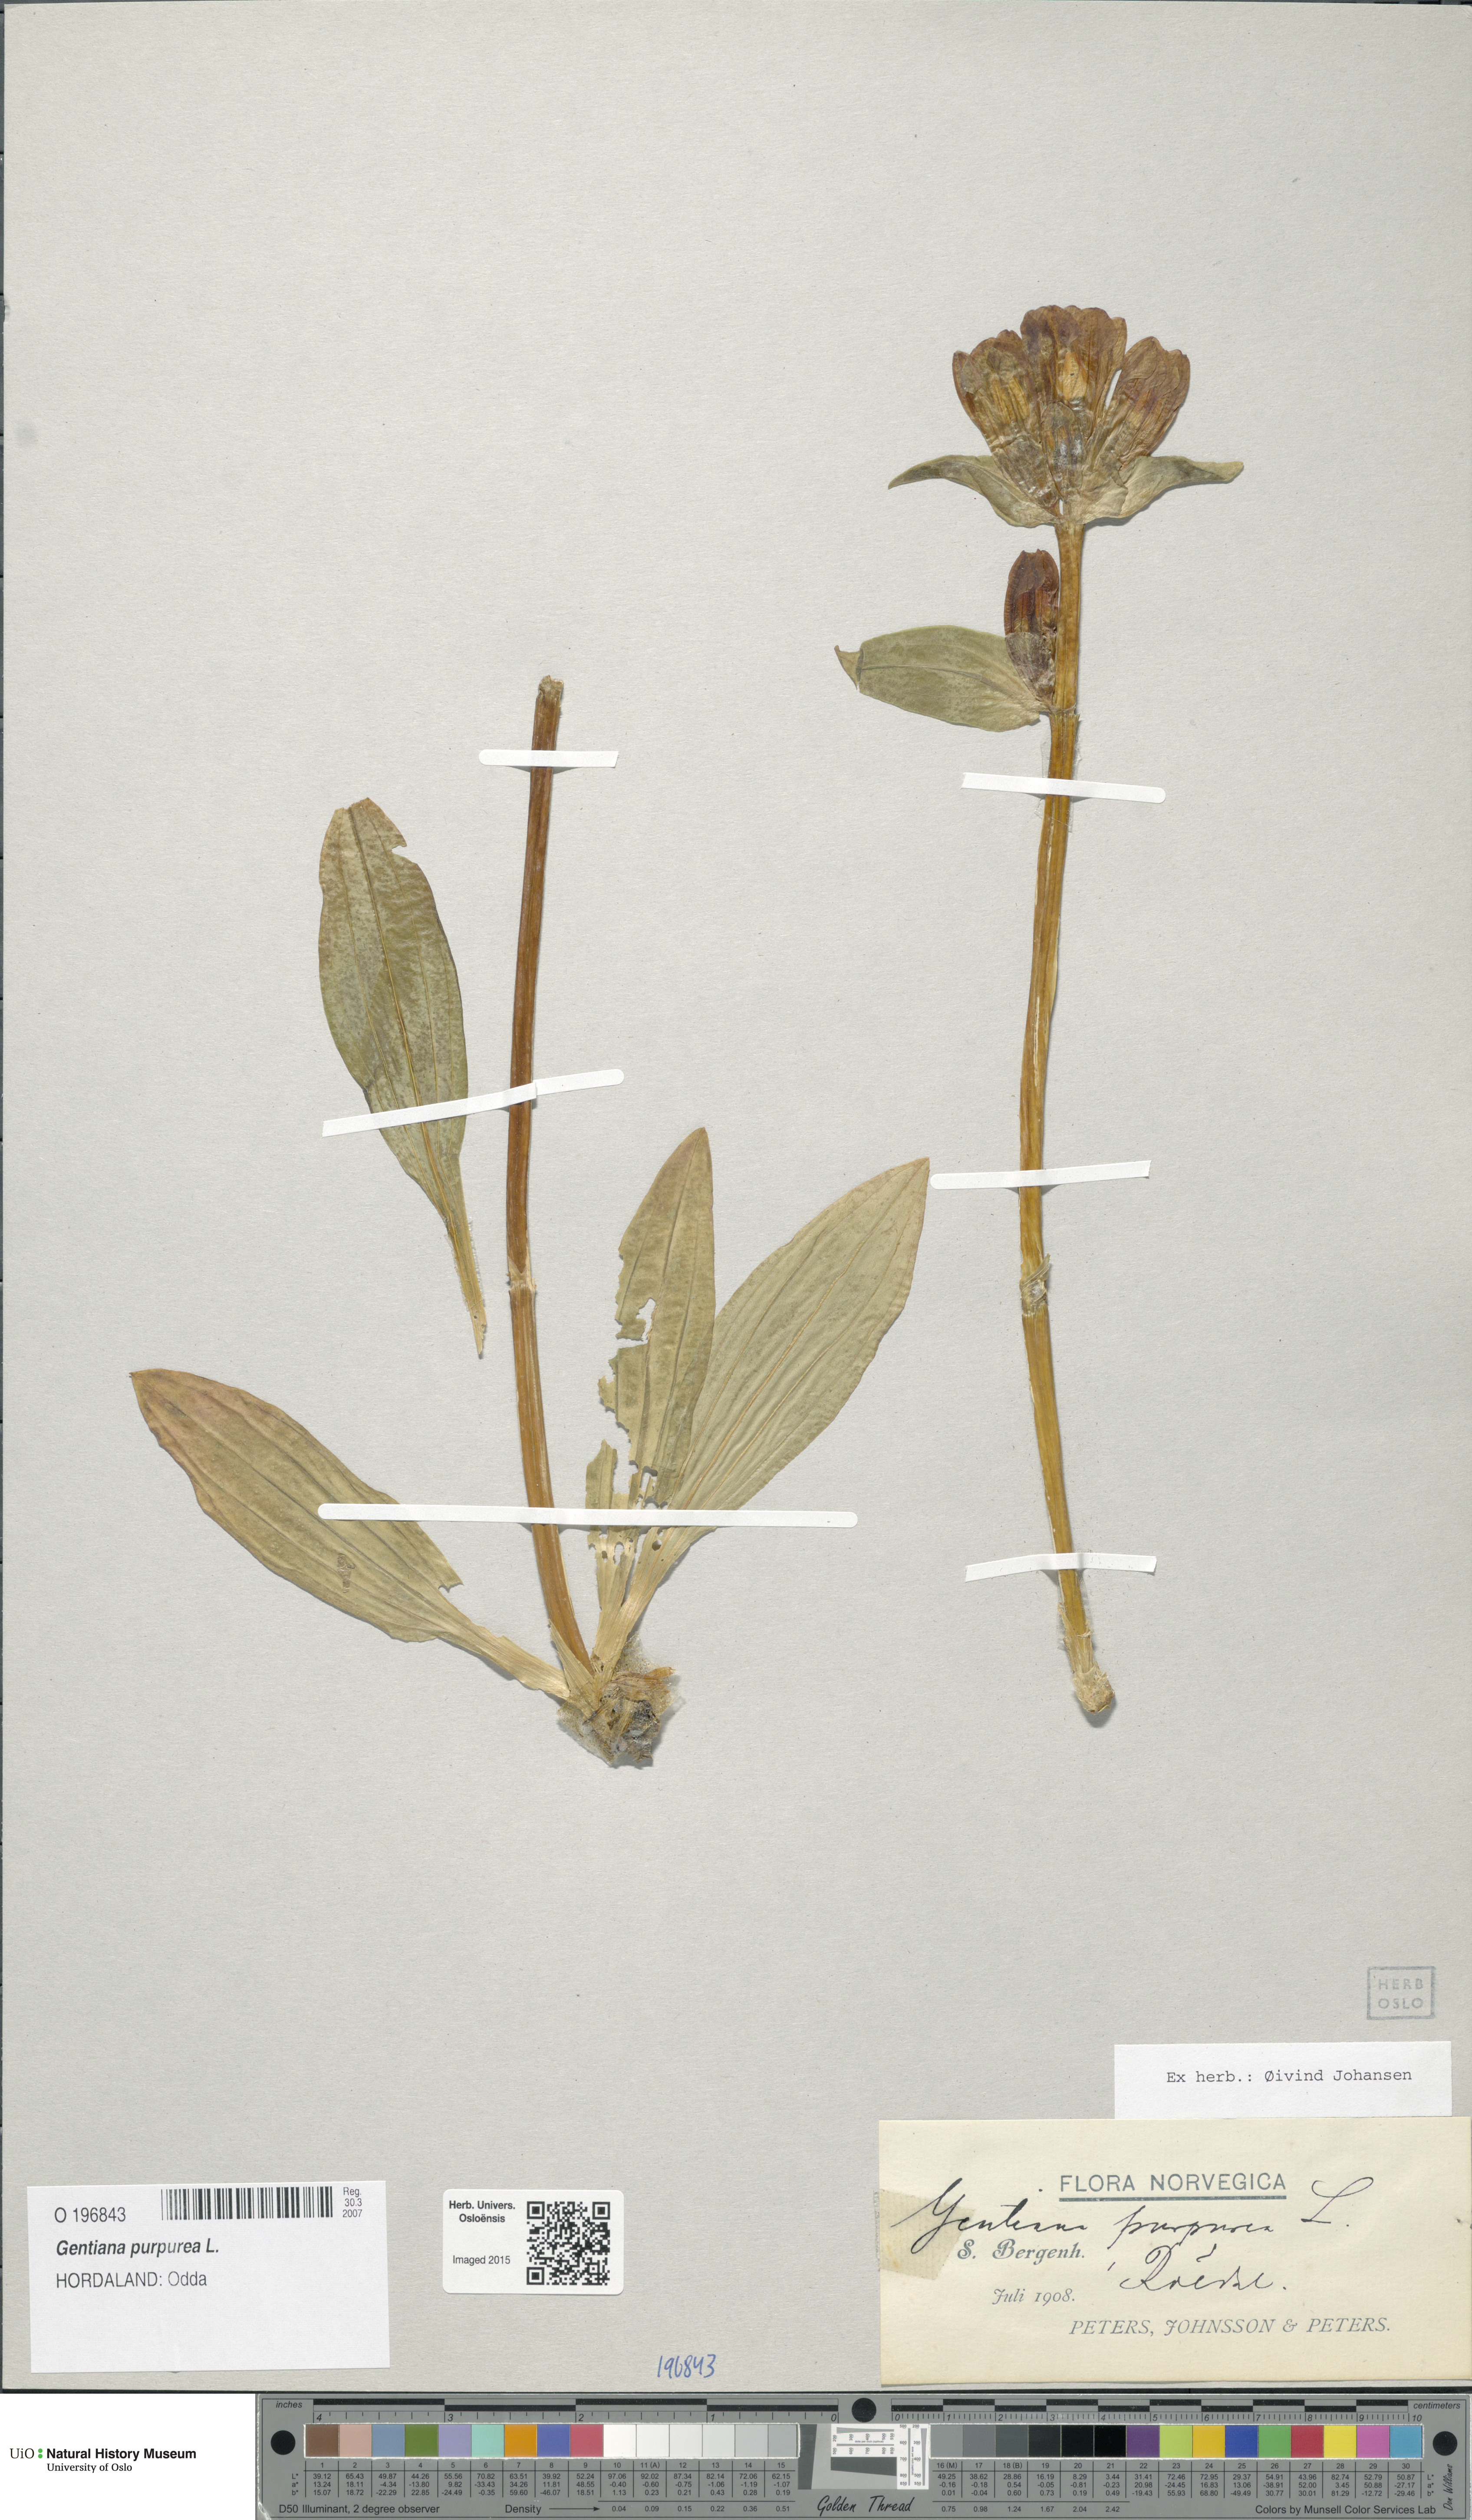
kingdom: Plantae
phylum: Tracheophyta
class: Magnoliopsida
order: Gentianales
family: Gentianaceae
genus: Gentiana
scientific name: Gentiana purpurea
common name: Purple gentian
